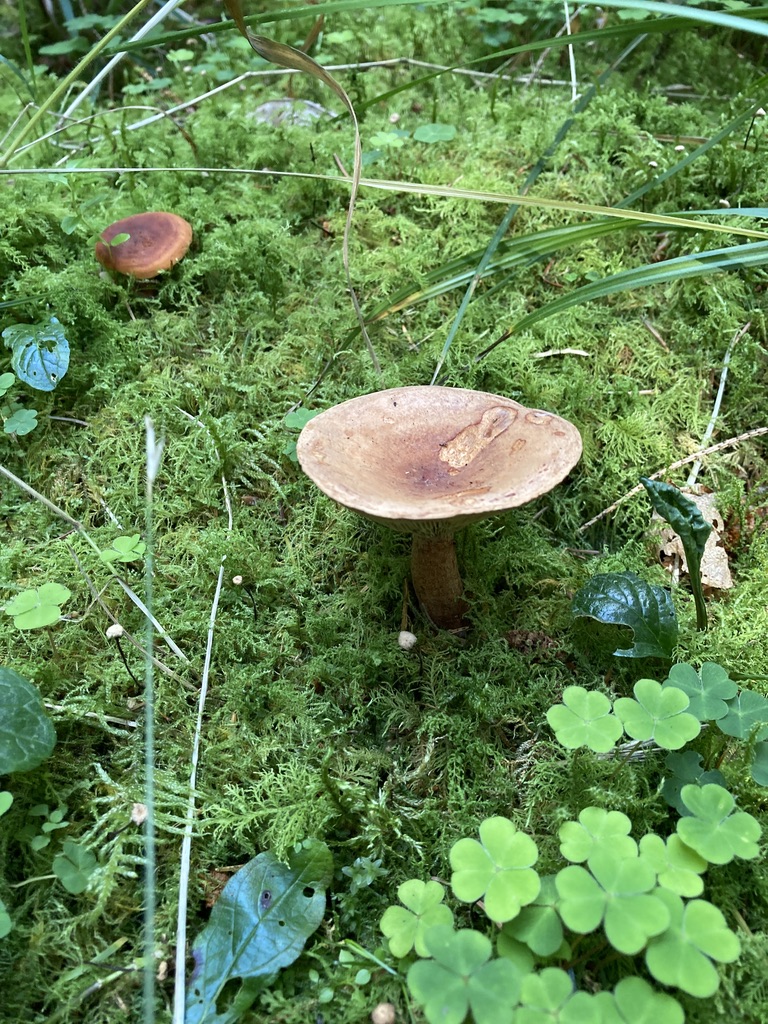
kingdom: Fungi
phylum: Basidiomycota
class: Agaricomycetes
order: Russulales
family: Russulaceae
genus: Lactarius
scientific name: Lactarius
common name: mælkehat
